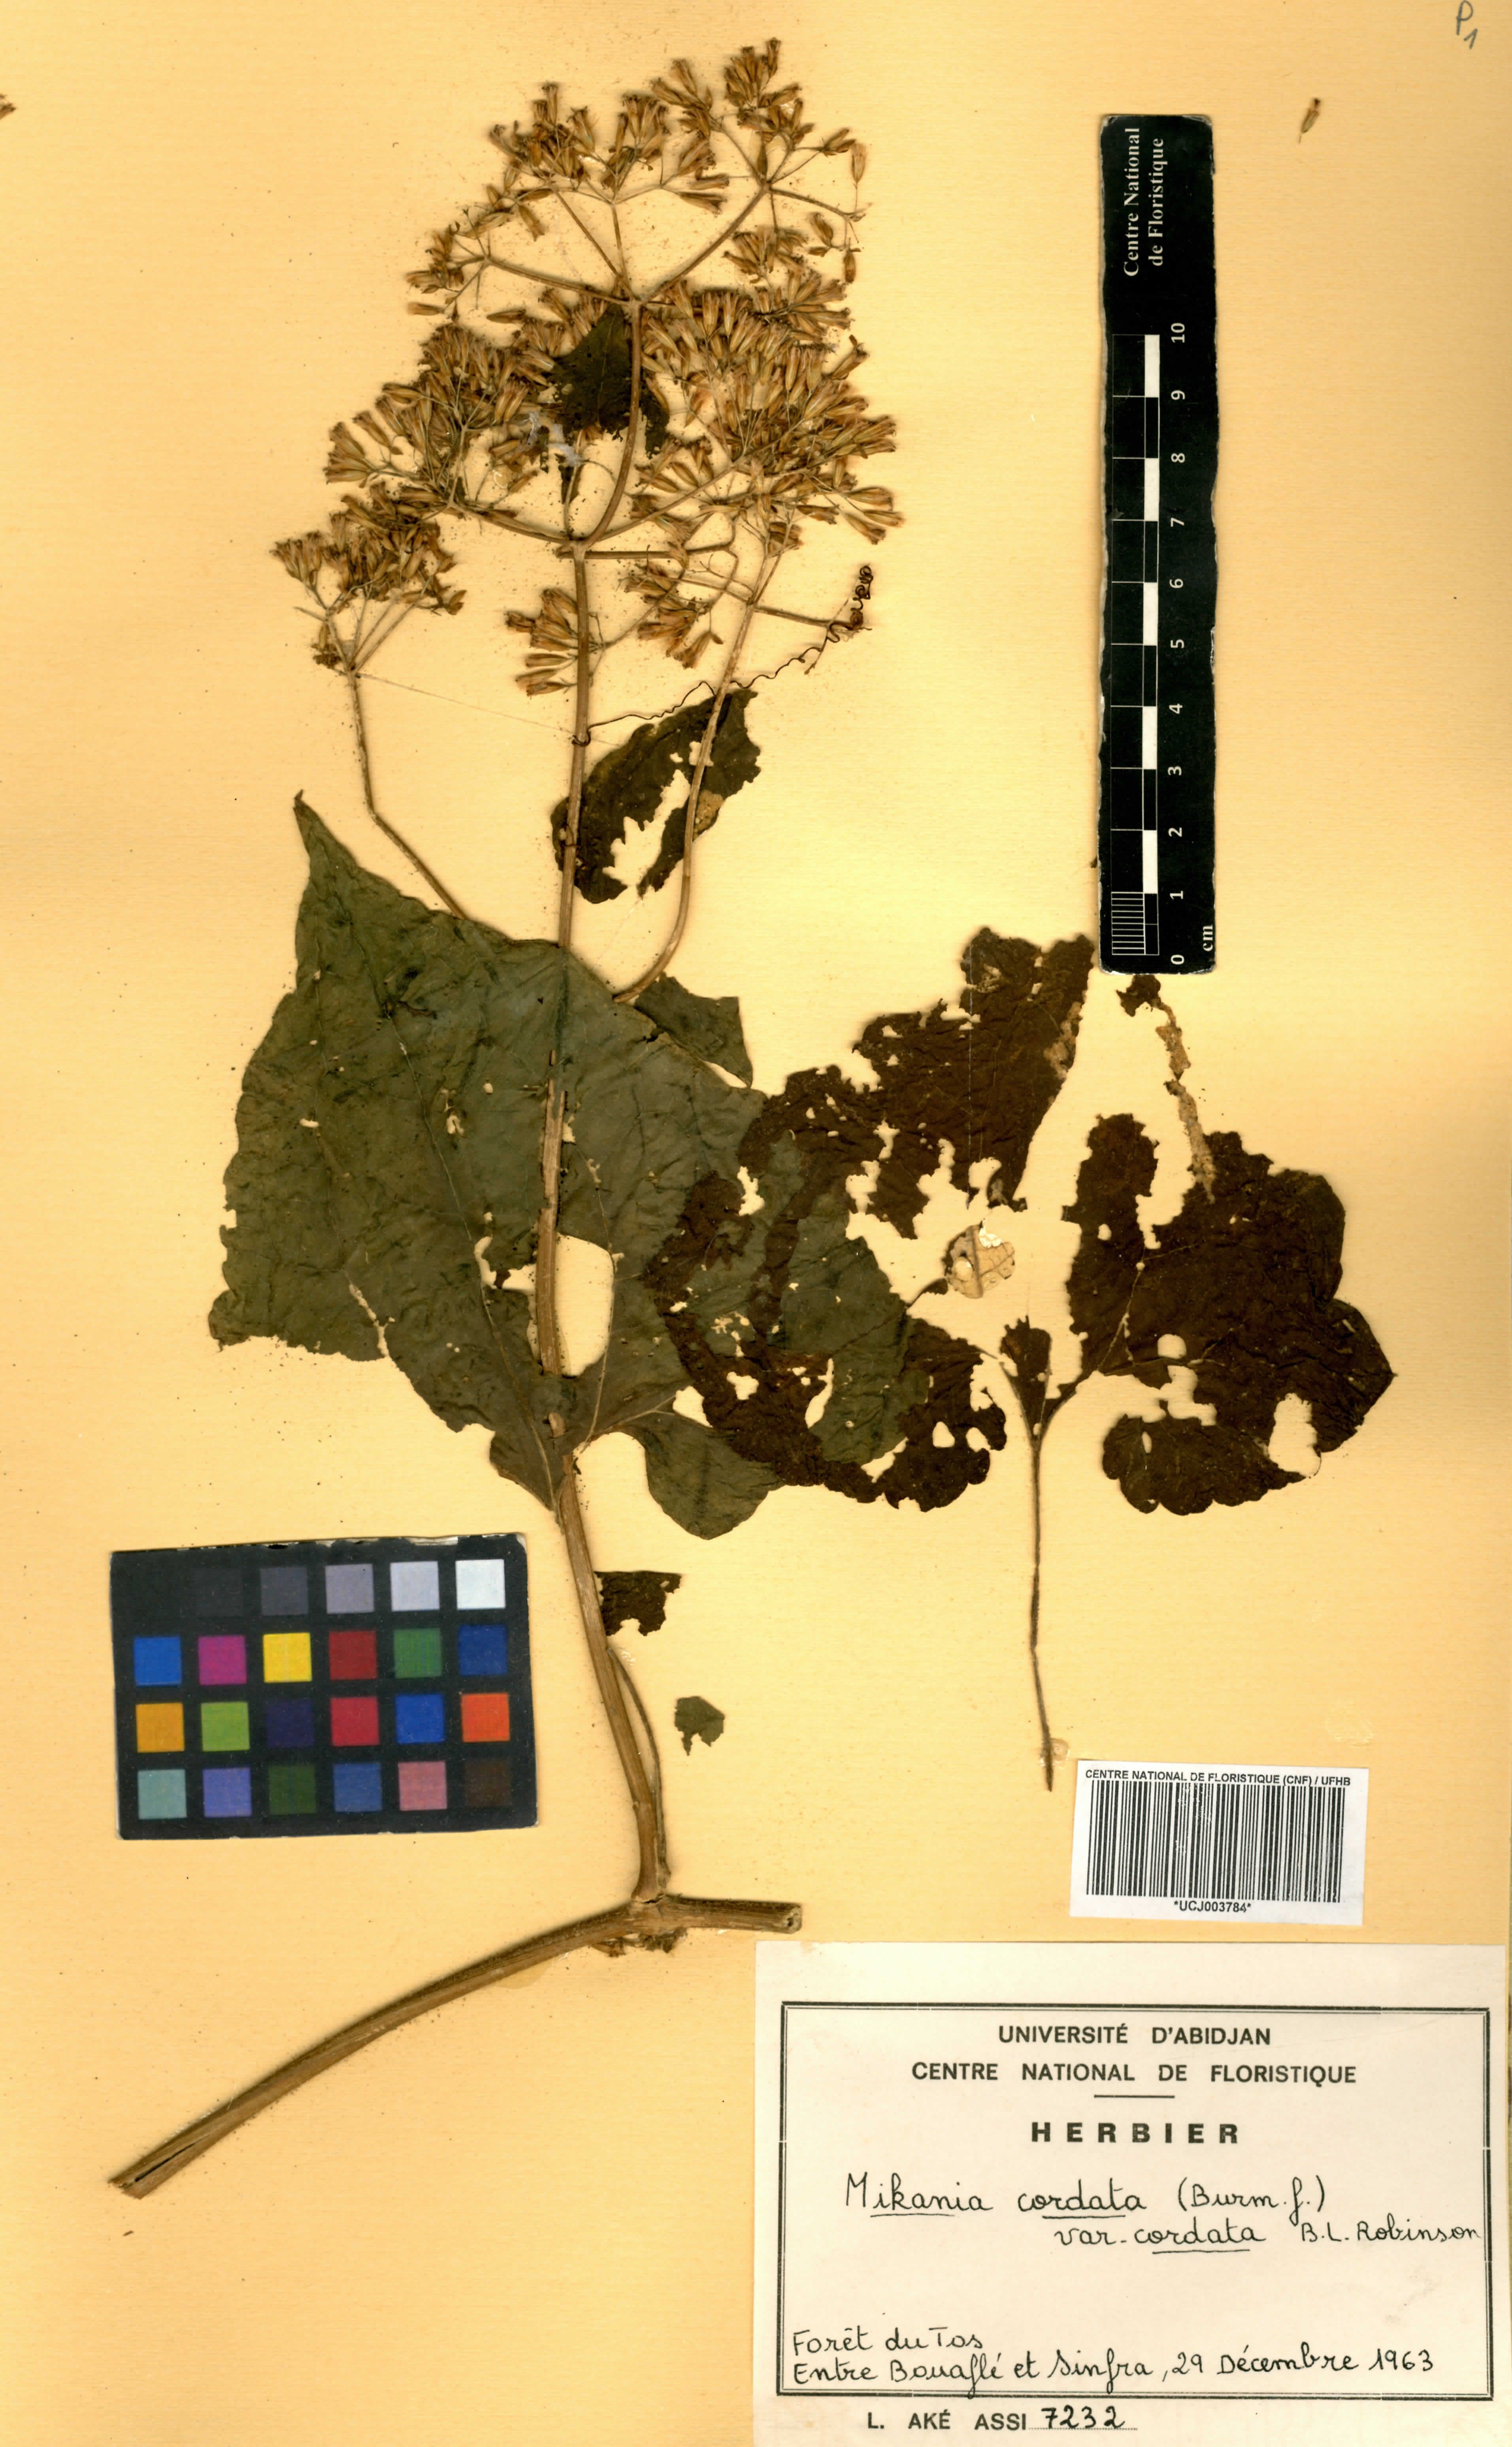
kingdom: Plantae
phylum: Tracheophyta
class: Magnoliopsida
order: Asterales
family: Asteraceae
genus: Mikania
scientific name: Mikania cordata
